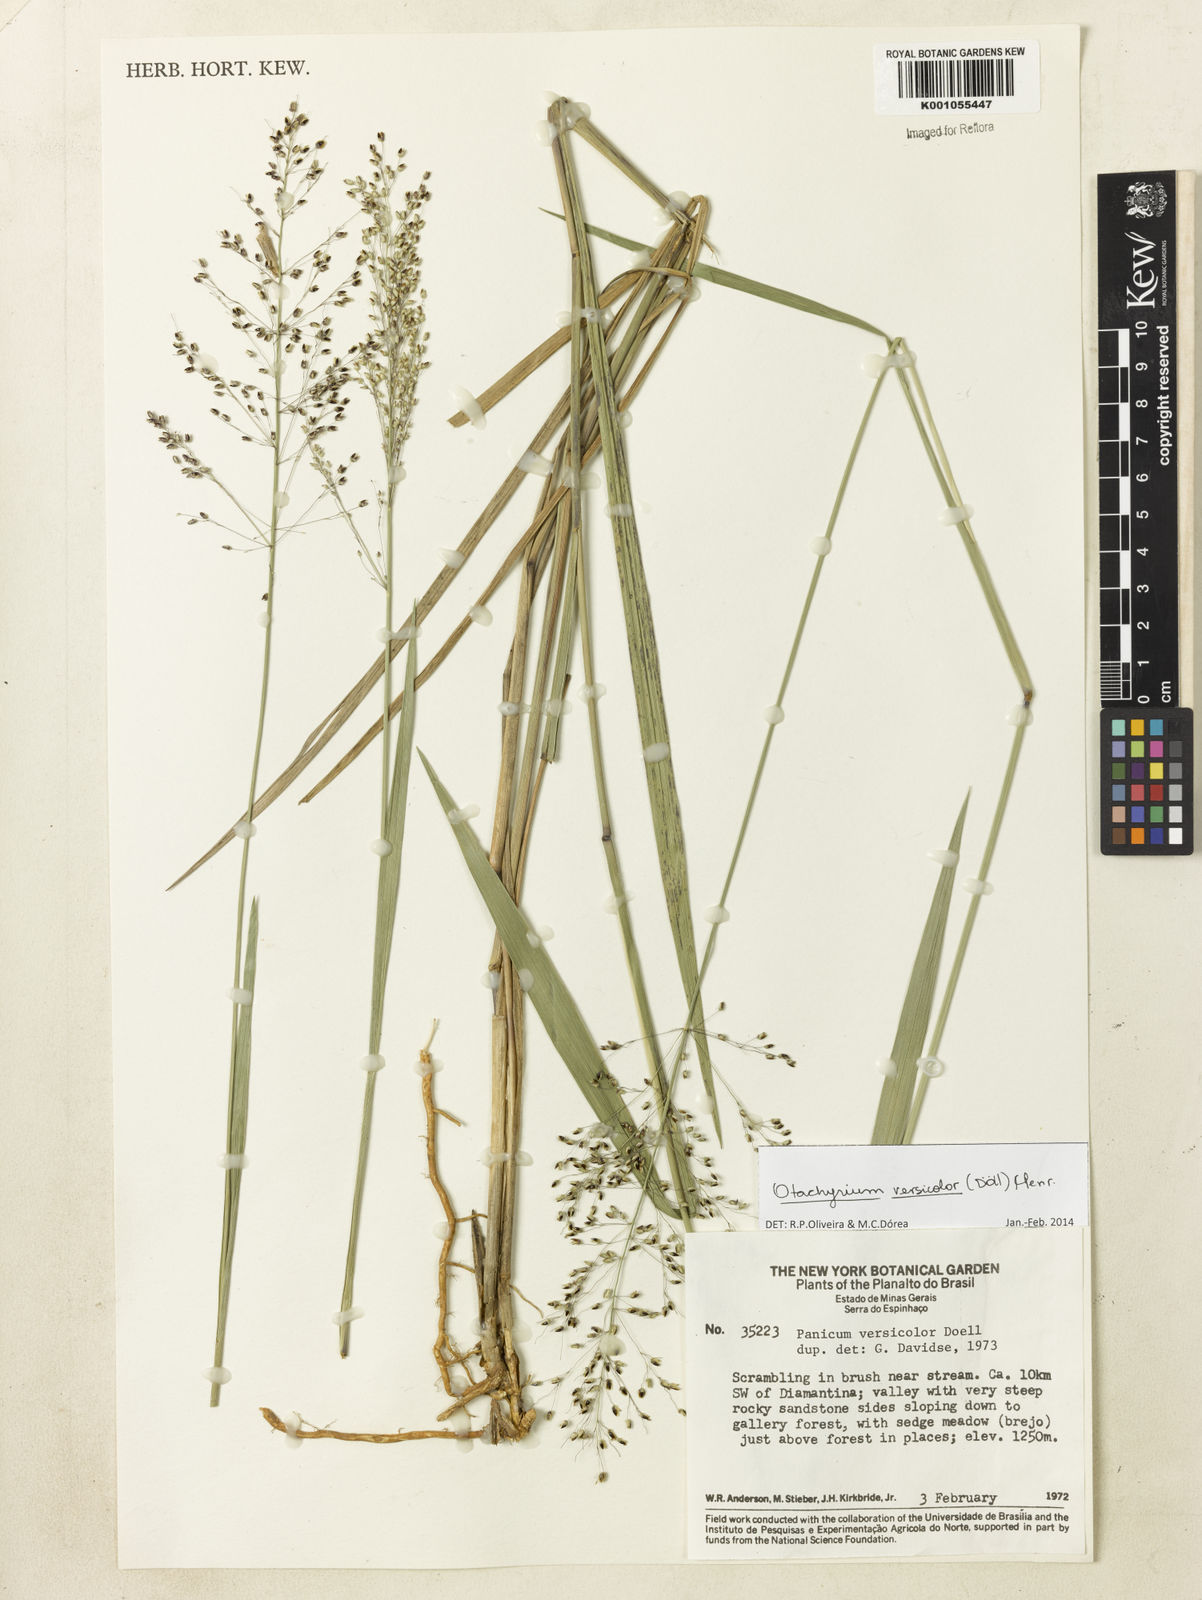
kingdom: Plantae
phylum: Tracheophyta
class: Liliopsida
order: Poales
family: Poaceae
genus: Otachyrium
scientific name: Otachyrium
